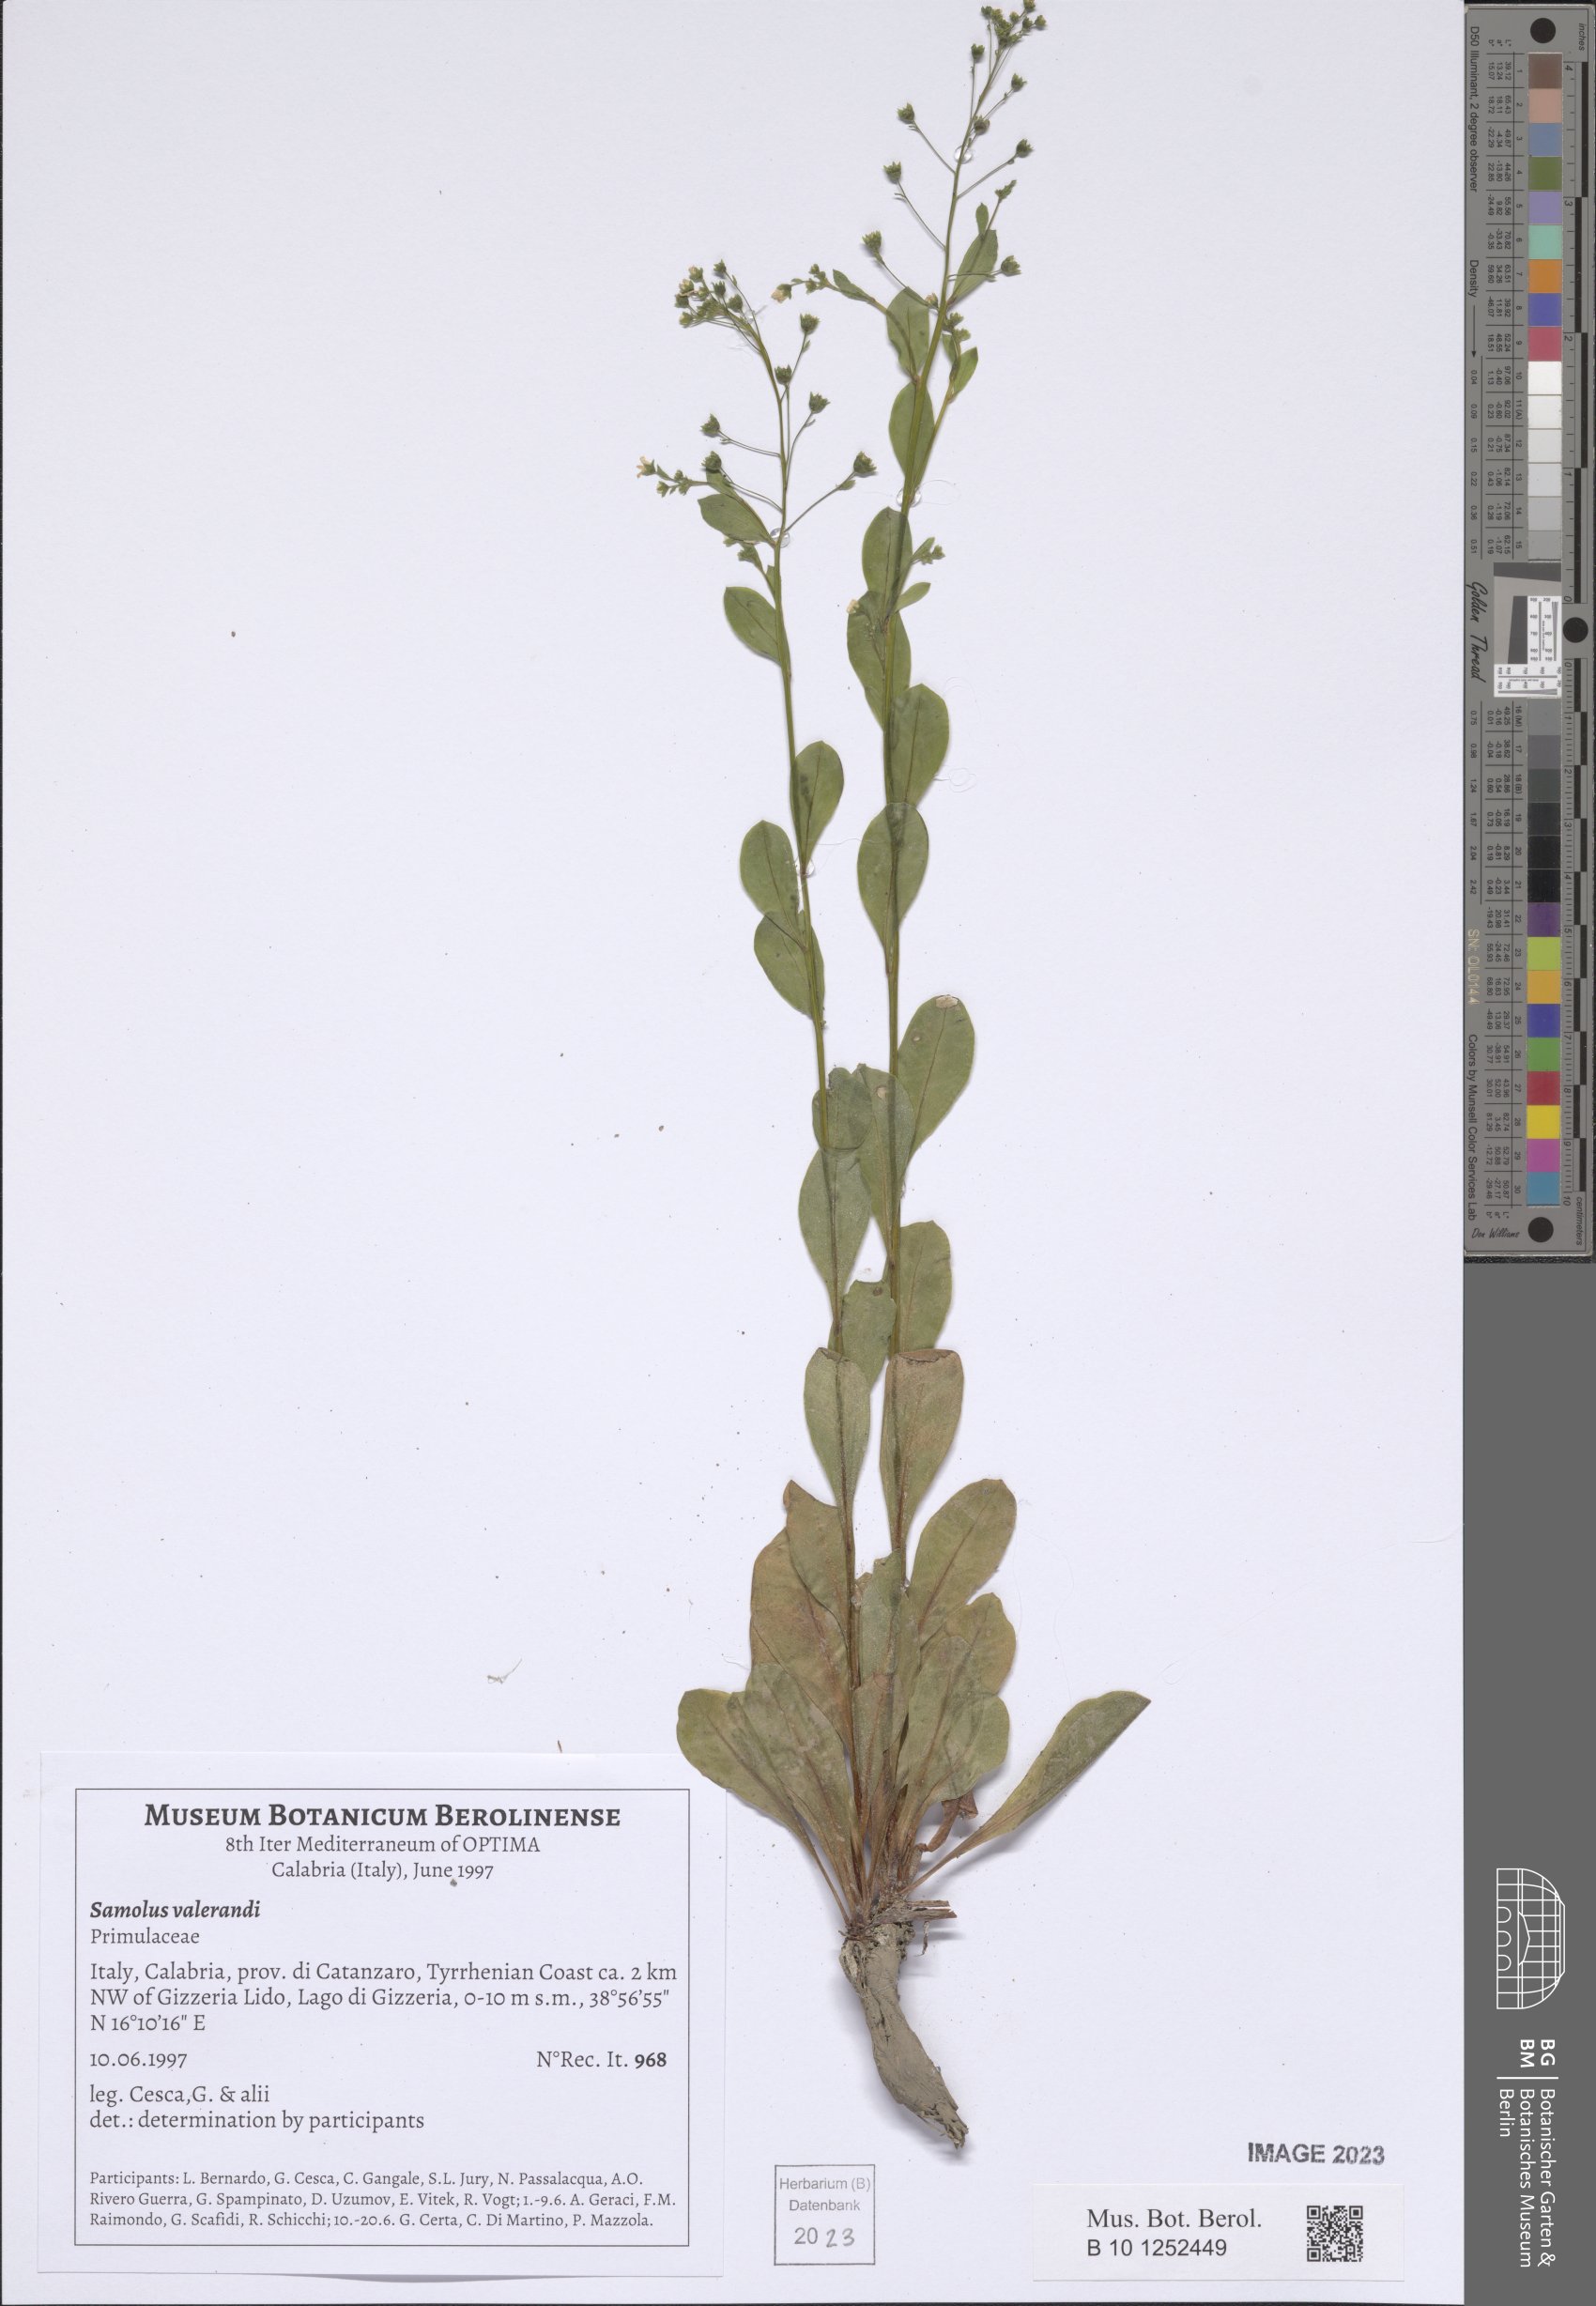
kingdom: Plantae
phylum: Tracheophyta
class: Magnoliopsida
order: Ericales
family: Primulaceae
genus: Samolus
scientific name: Samolus valerandi
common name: Brookweed
